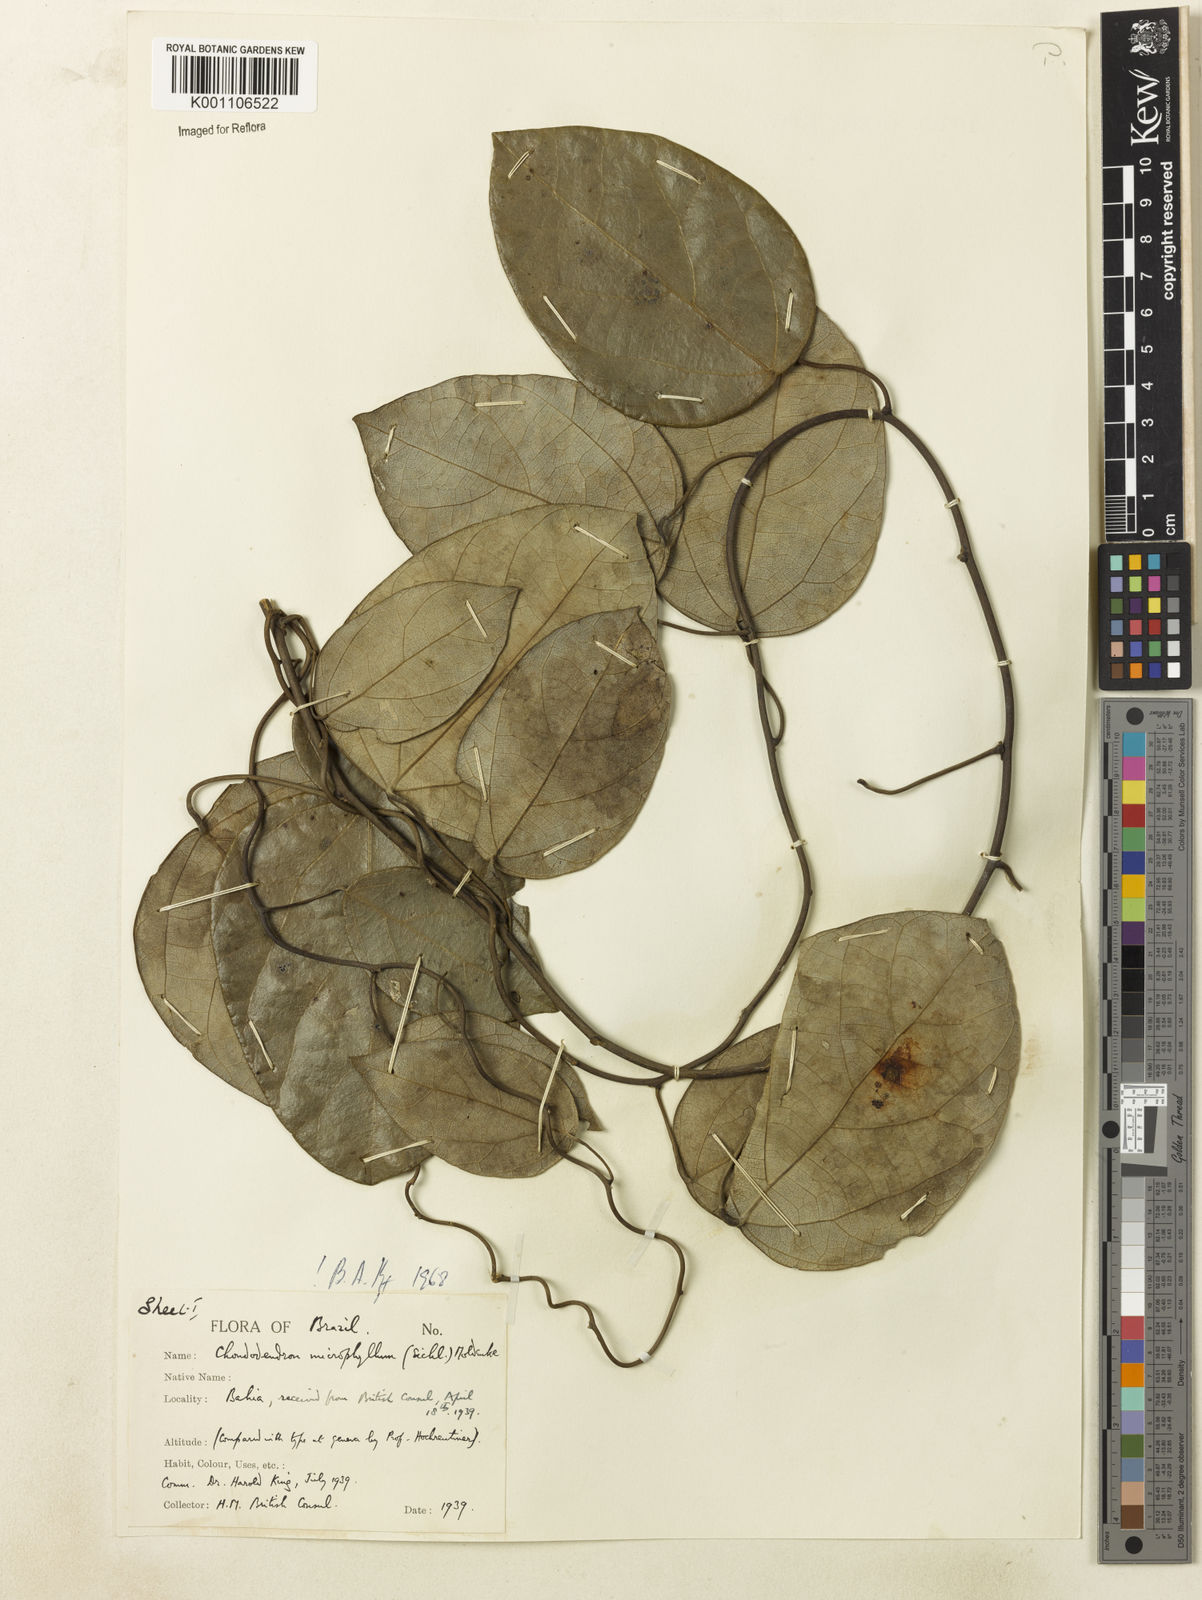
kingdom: Plantae
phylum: Tracheophyta
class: Magnoliopsida
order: Ranunculales
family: Menispermaceae
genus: Chondrodendron
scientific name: Chondrodendron microphyllum
